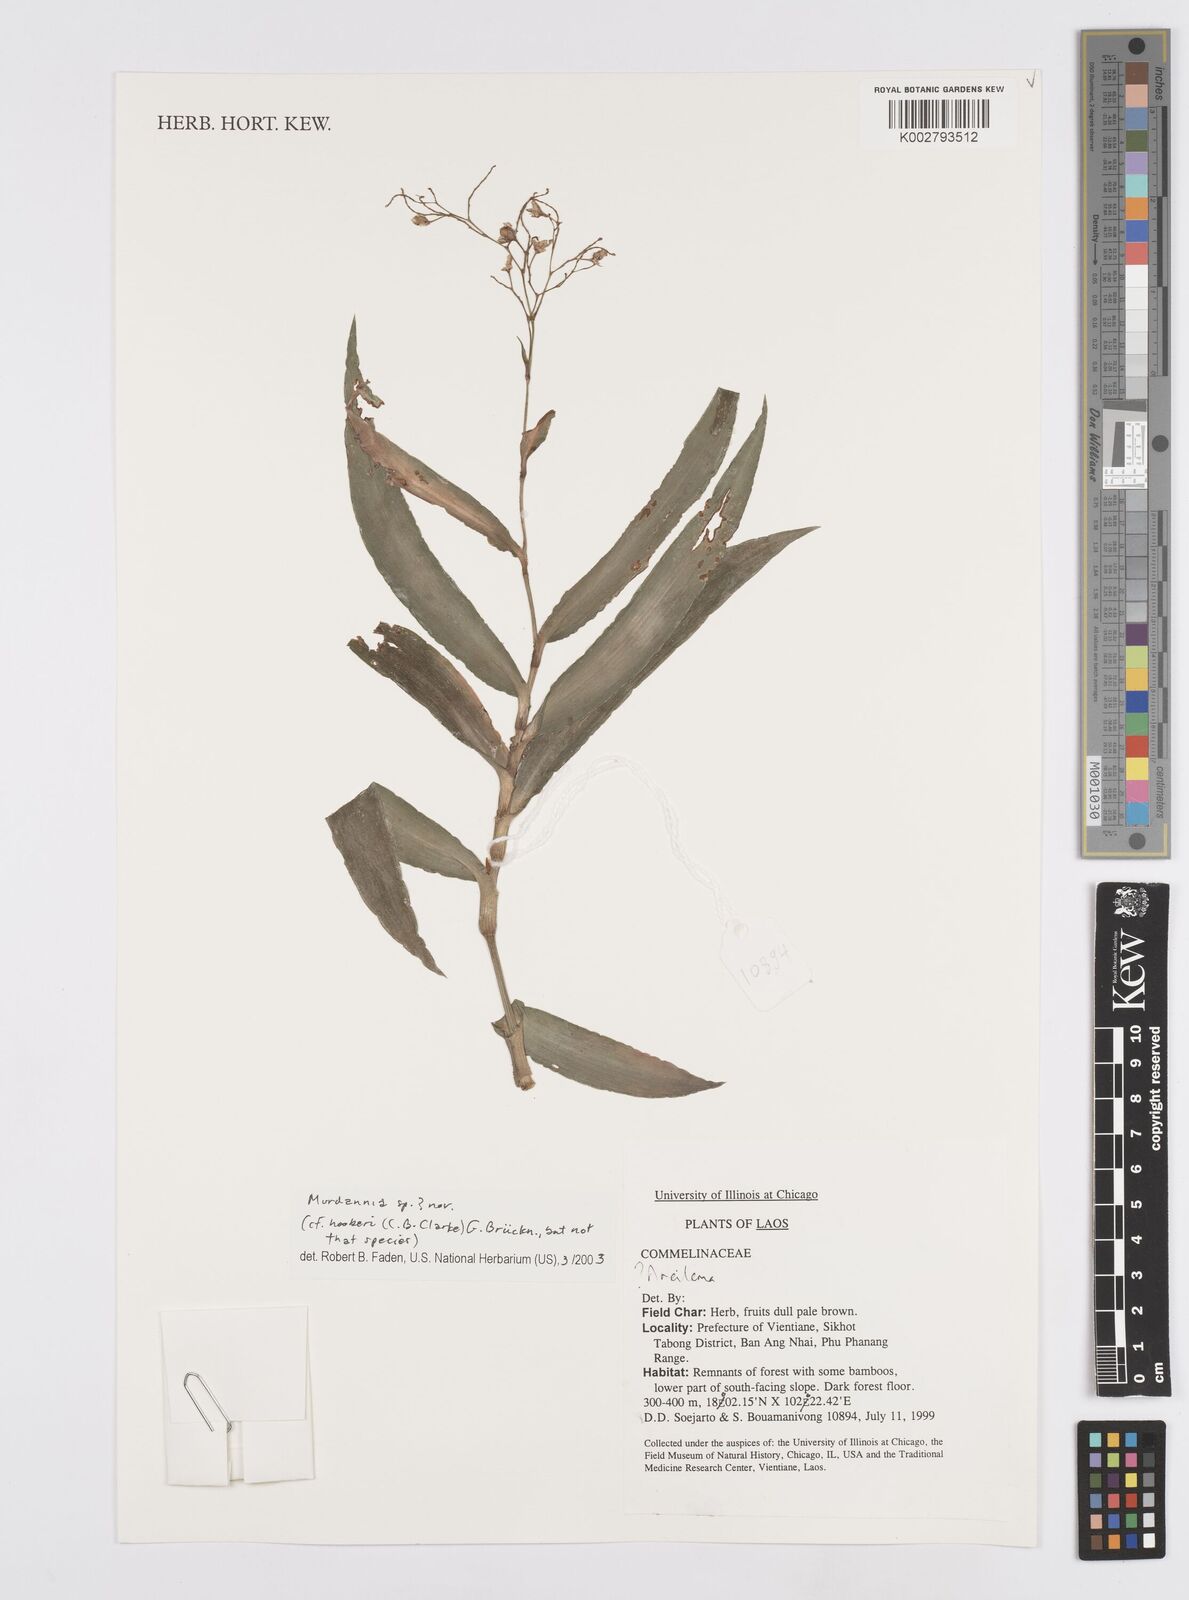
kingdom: Plantae
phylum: Tracheophyta
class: Liliopsida
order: Commelinales
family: Commelinaceae
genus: Murdannia
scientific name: Murdannia
